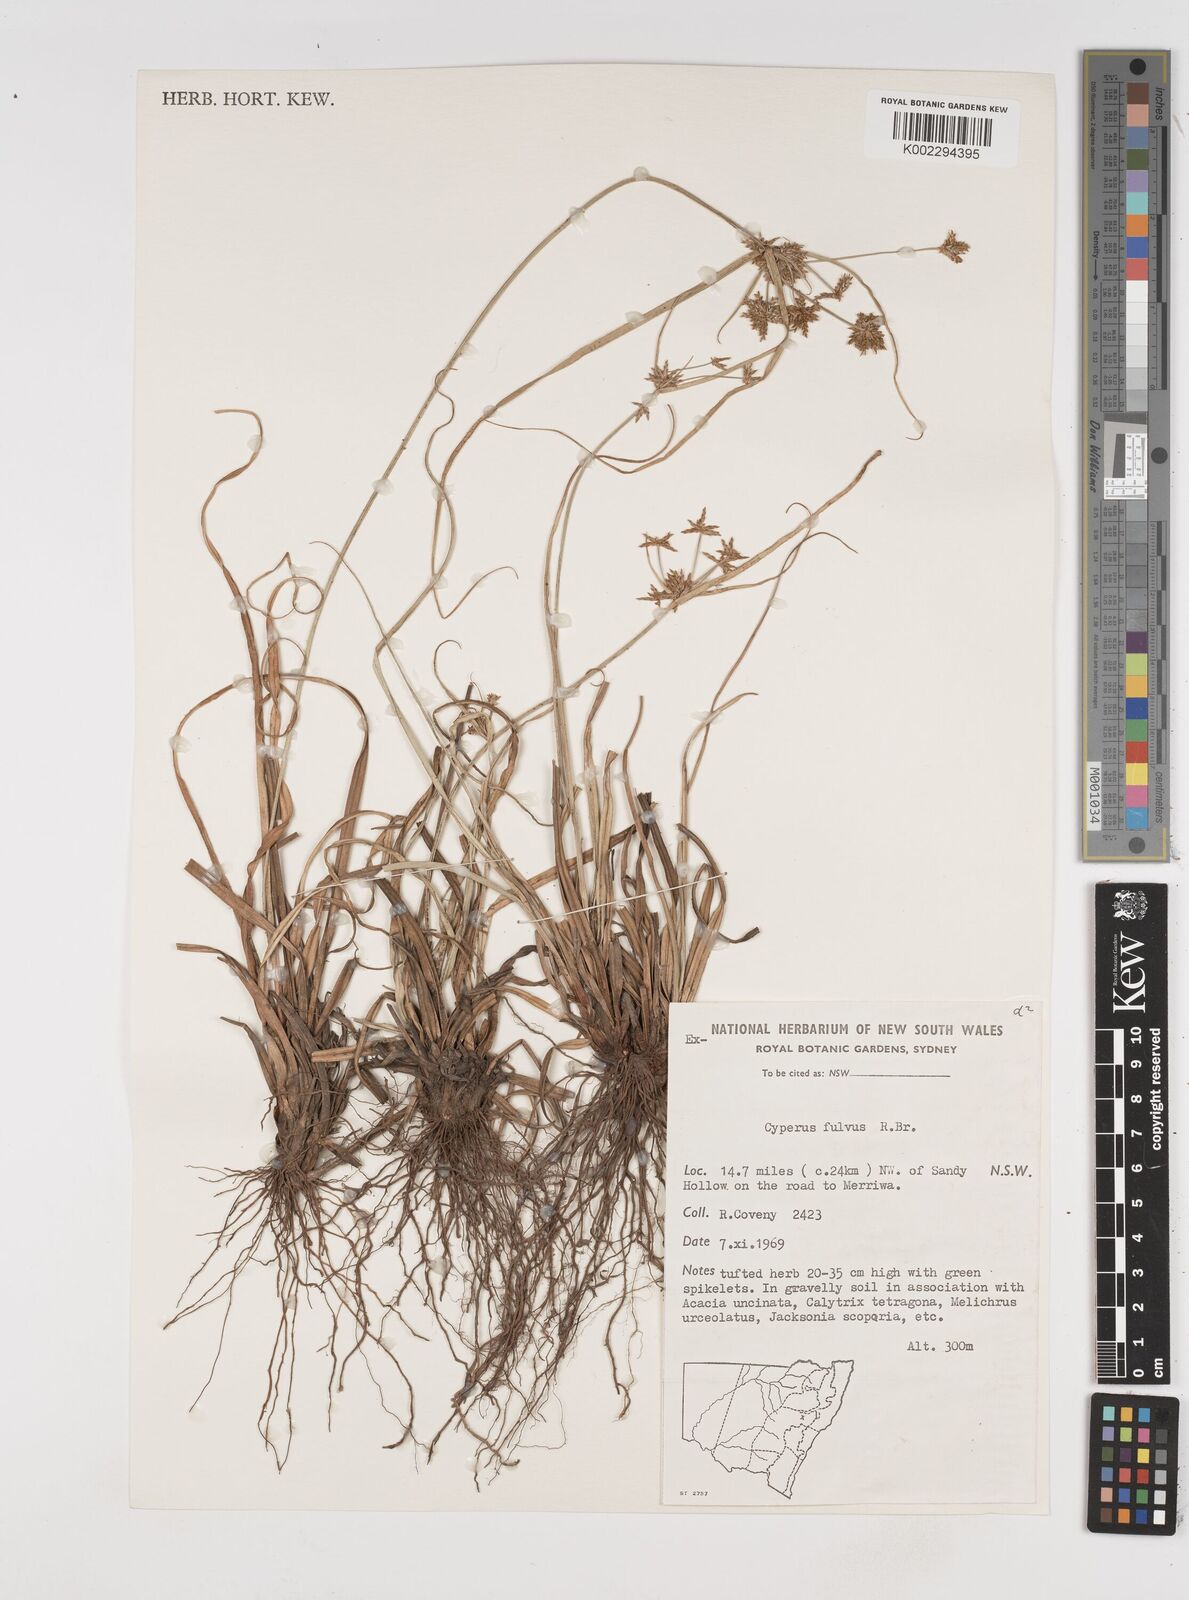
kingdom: Plantae
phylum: Tracheophyta
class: Liliopsida
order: Poales
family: Cyperaceae
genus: Cyperus
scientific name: Cyperus fulvus
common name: Sticky sedge
